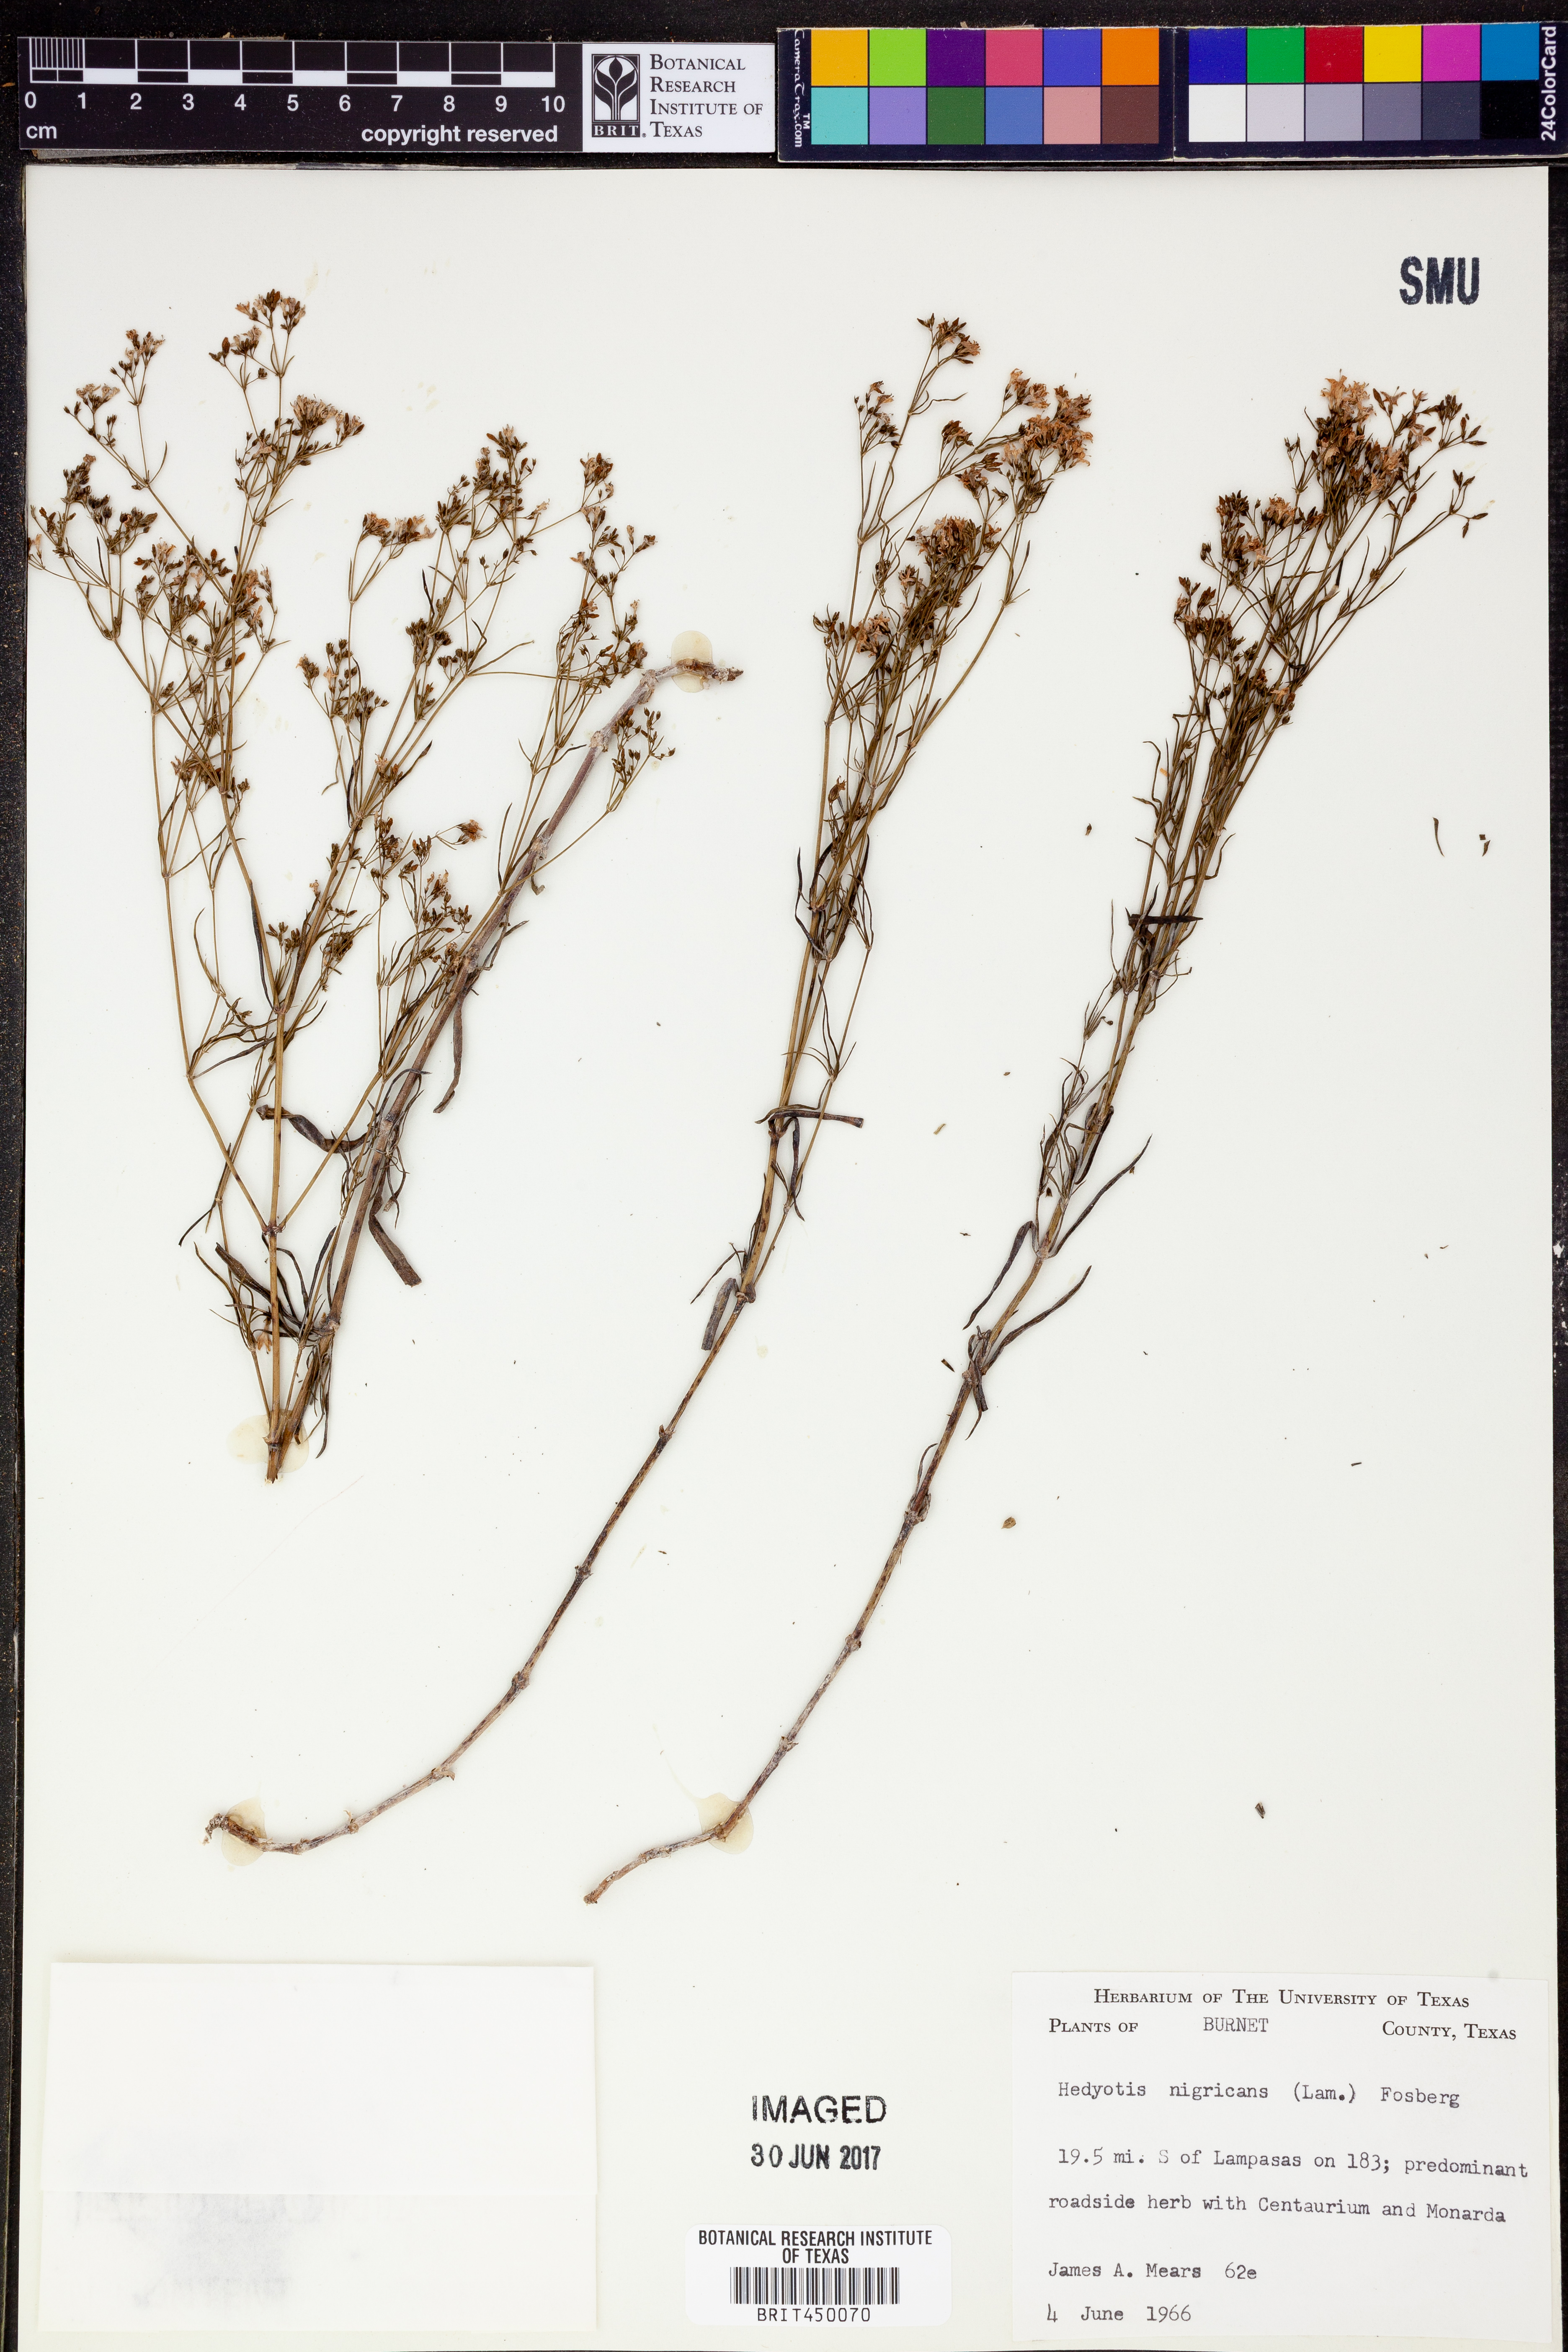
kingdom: Plantae
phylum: Tracheophyta
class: Magnoliopsida
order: Gentianales
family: Rubiaceae
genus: Stenaria
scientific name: Stenaria nigricans
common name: Diamondflowers
